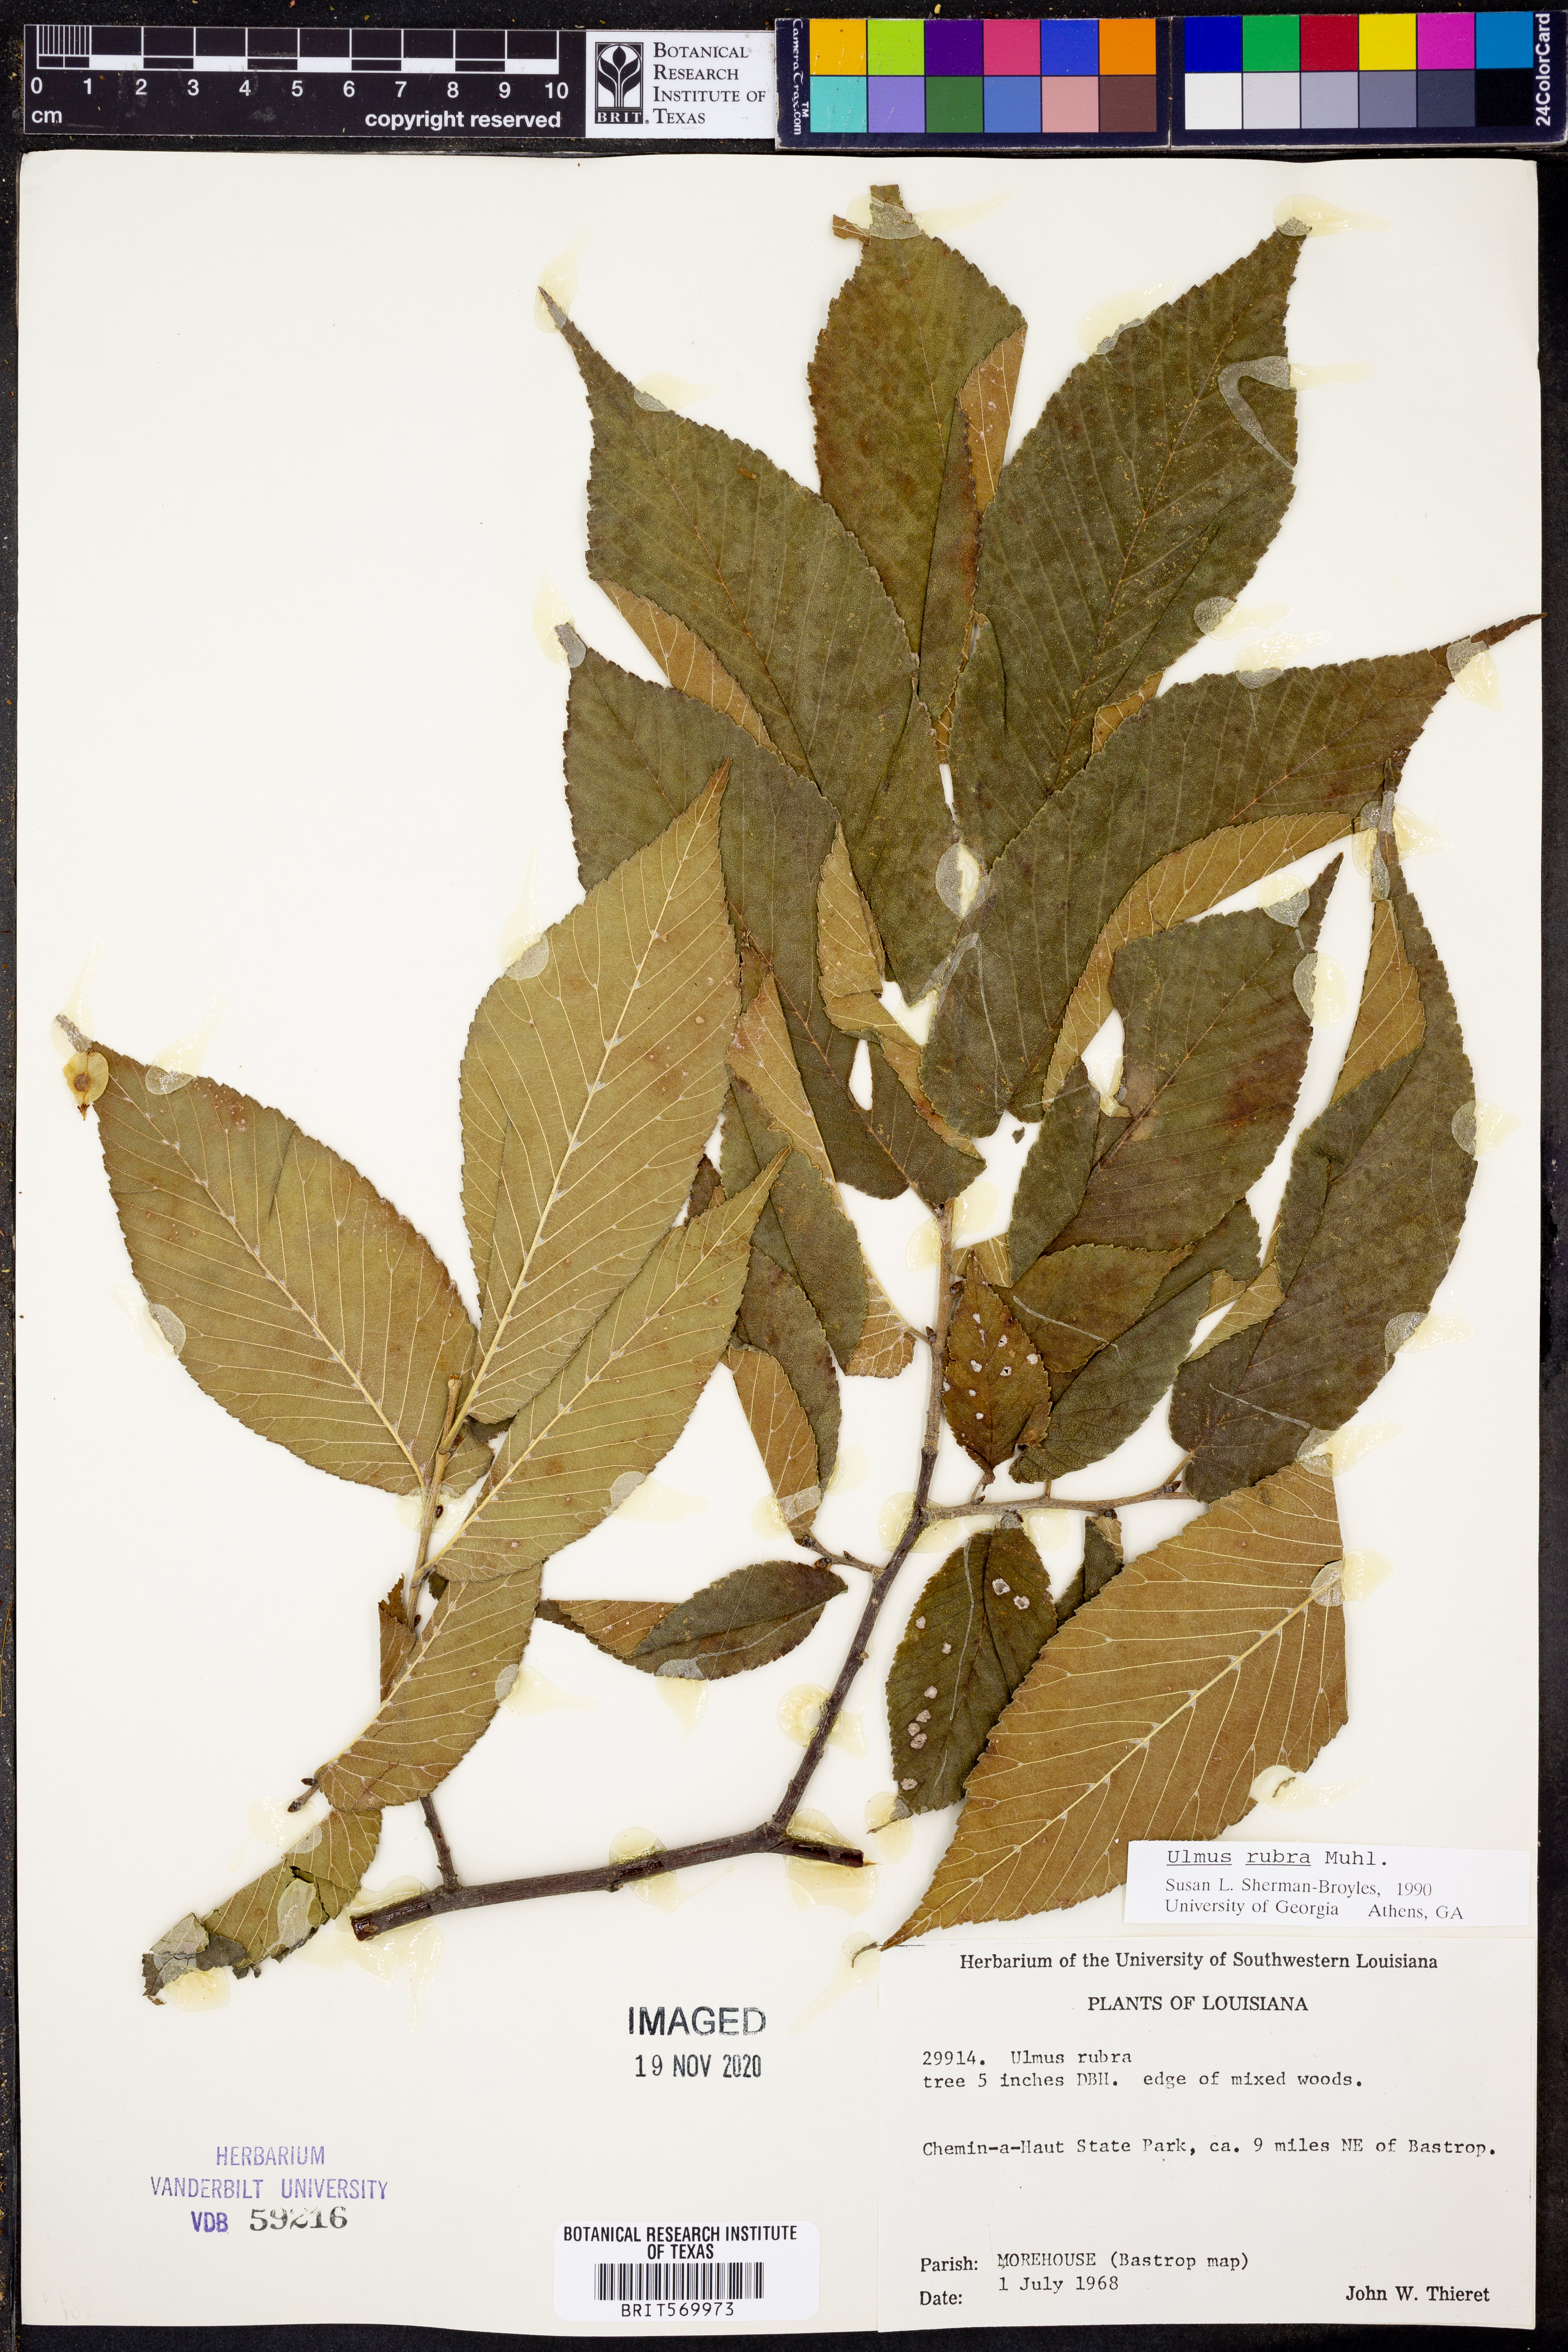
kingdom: Plantae
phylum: Tracheophyta
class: Magnoliopsida
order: Rosales
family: Ulmaceae
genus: Ulmus
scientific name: Ulmus rubra
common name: Slippery elm
